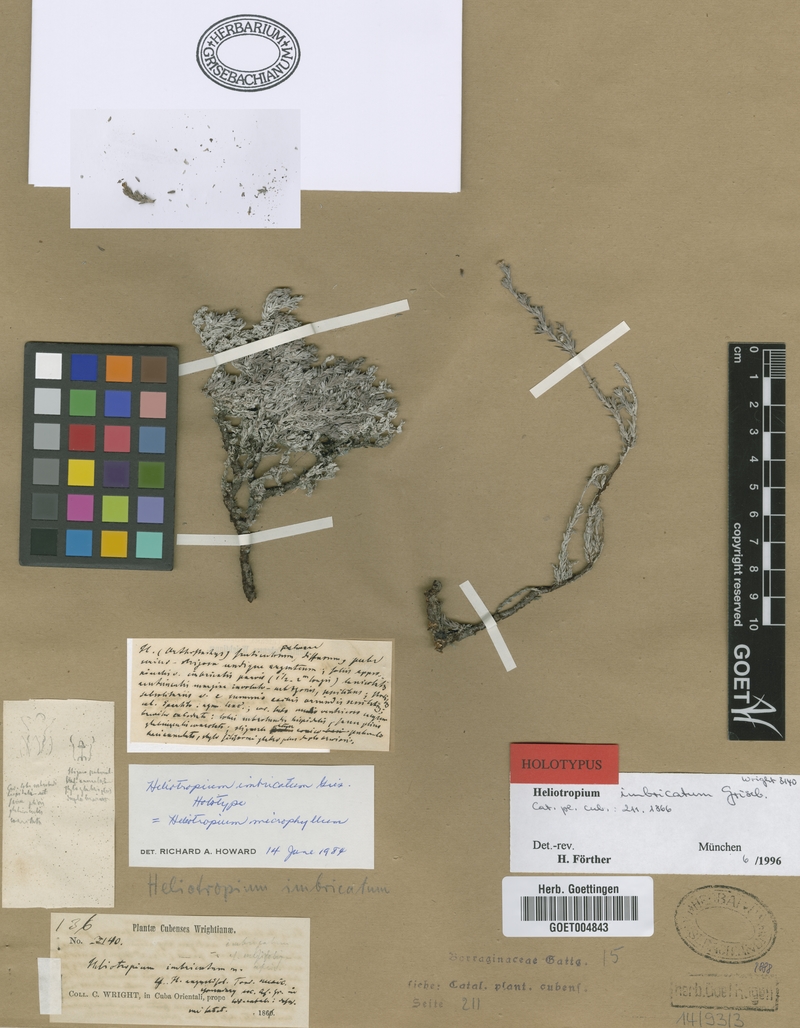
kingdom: Plantae
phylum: Tracheophyta
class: Magnoliopsida
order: Boraginales
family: Heliotropiaceae
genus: Euploca
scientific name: Euploca microphylla
